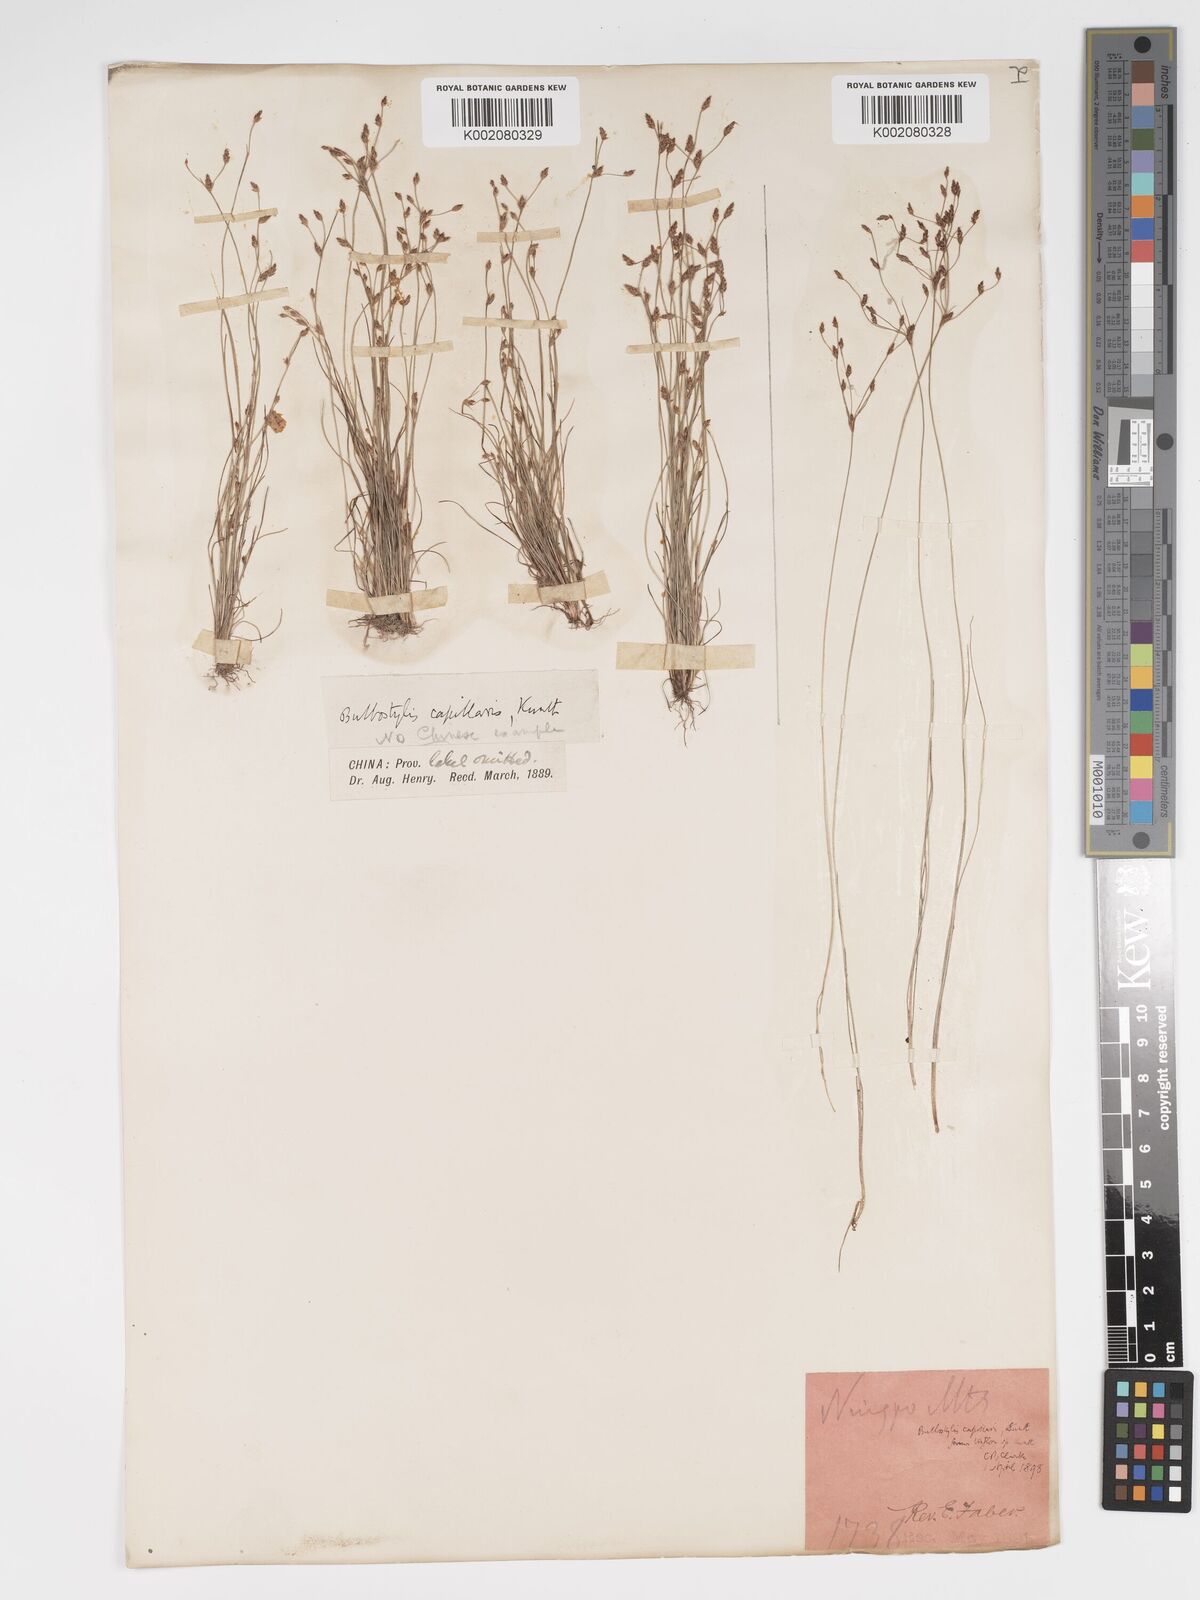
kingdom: Plantae
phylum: Tracheophyta
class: Liliopsida
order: Poales
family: Cyperaceae
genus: Bulbostylis
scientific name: Bulbostylis capillaris
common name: Densetuft hairsedge
